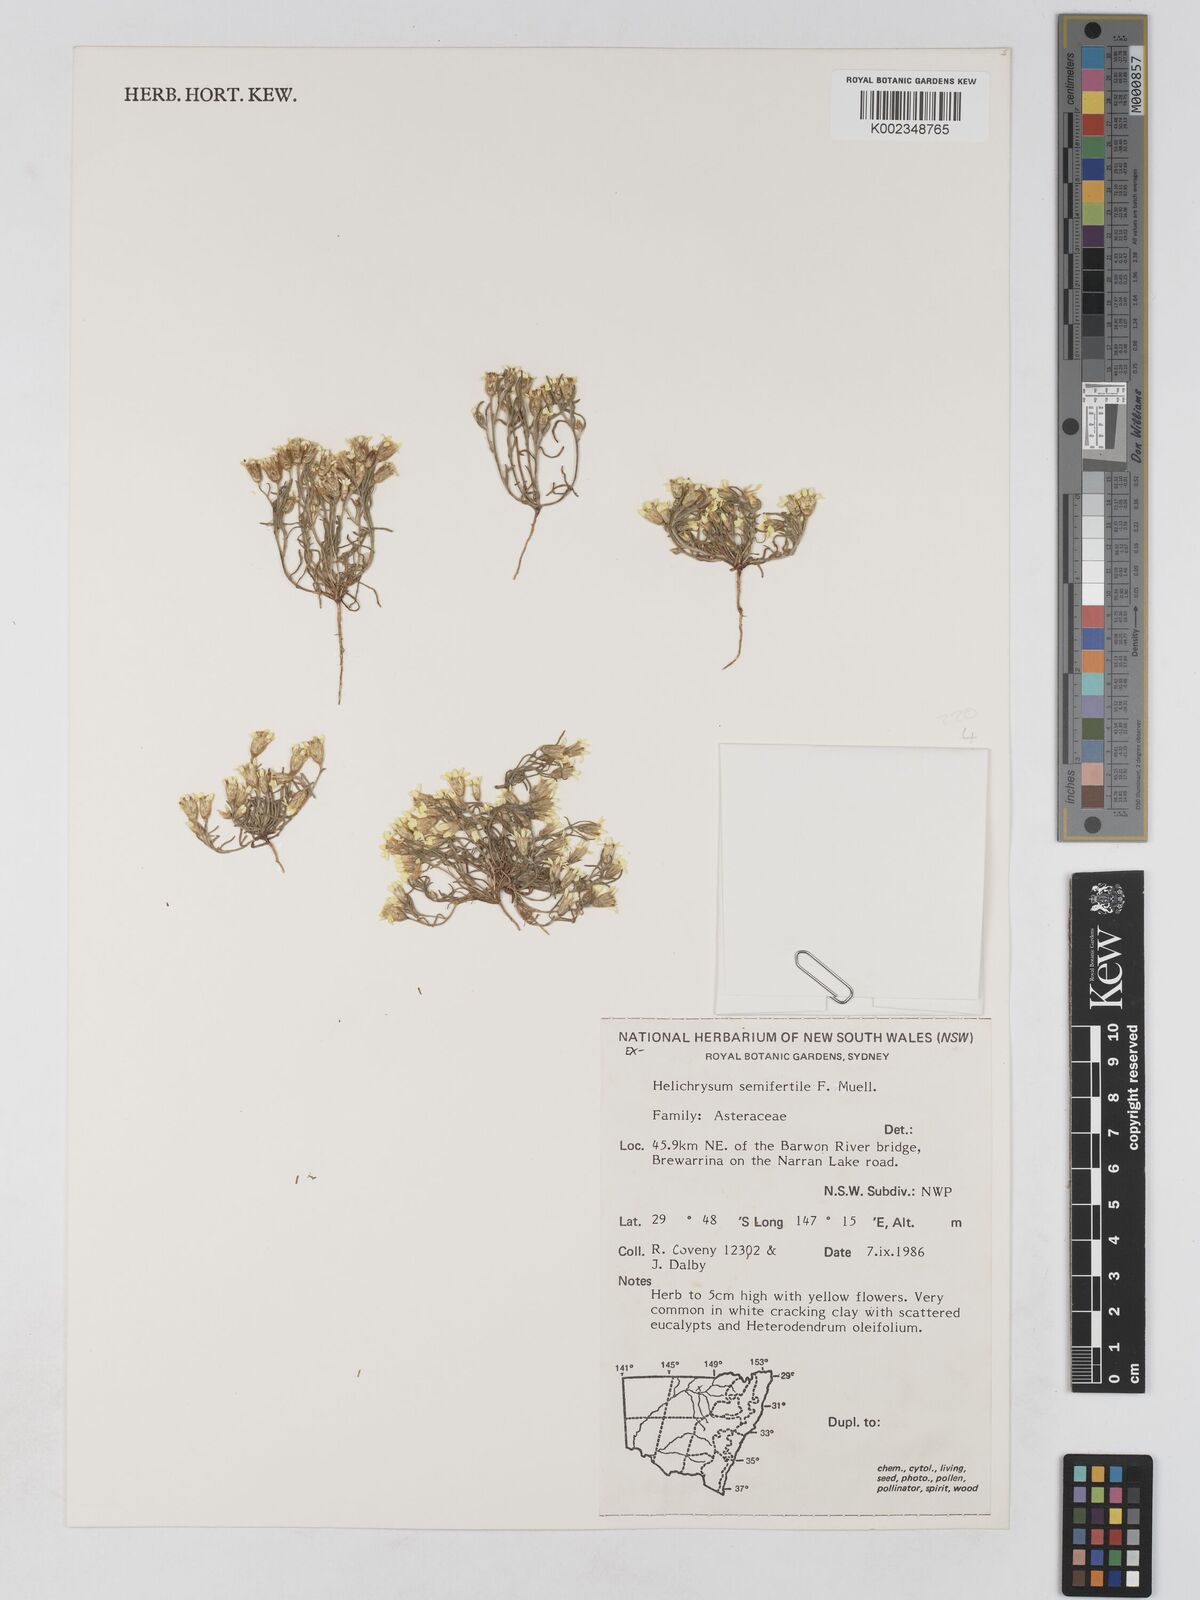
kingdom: Plantae
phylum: Tracheophyta
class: Magnoliopsida
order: Asterales
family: Asteraceae
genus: Schoenia
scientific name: Schoenia ramosissima
